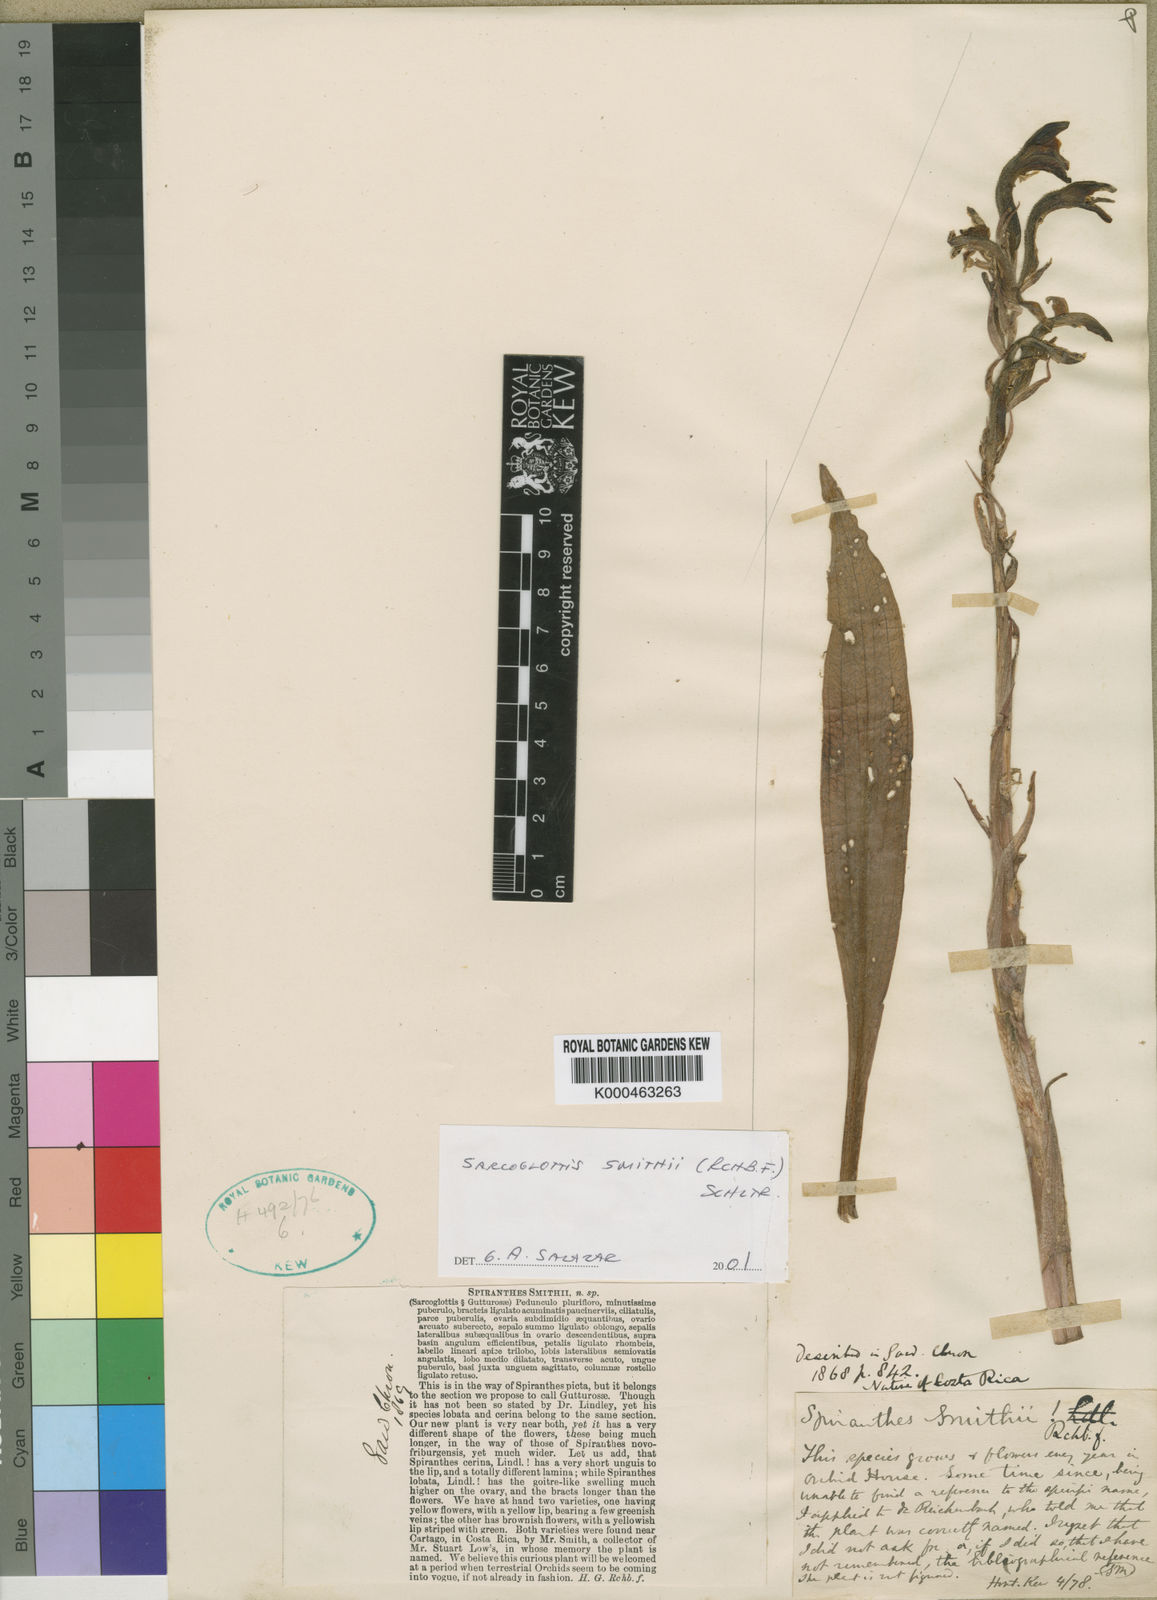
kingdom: Plantae
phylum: Tracheophyta
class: Liliopsida
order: Asparagales
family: Orchidaceae
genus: Sarcoglottis
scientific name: Sarcoglottis smithii
